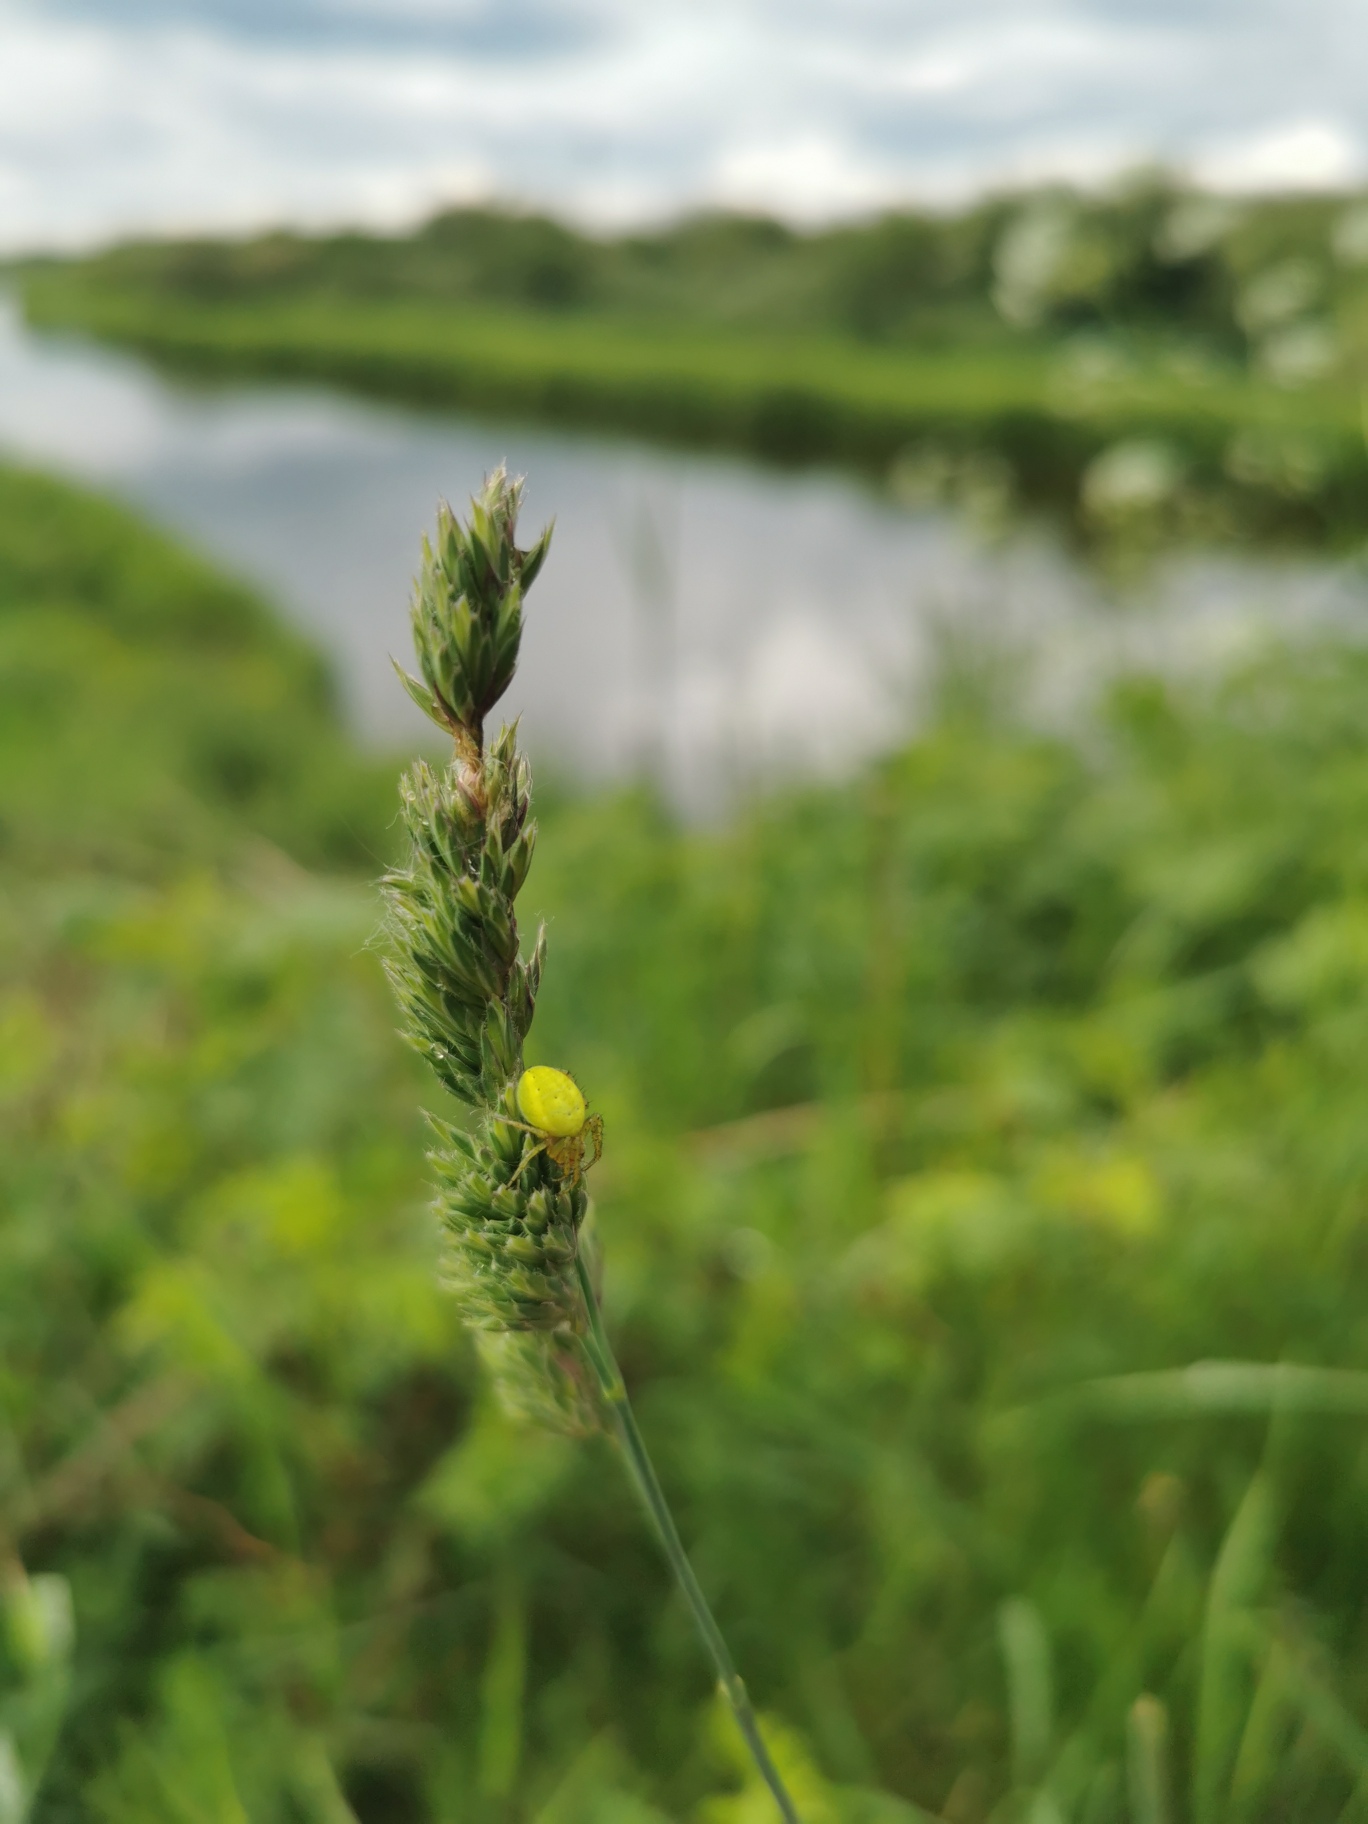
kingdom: Animalia
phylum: Arthropoda
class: Arachnida
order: Araneae
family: Araneidae
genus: Araniella
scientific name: Araniella
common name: Agurkeedderkopslægten
